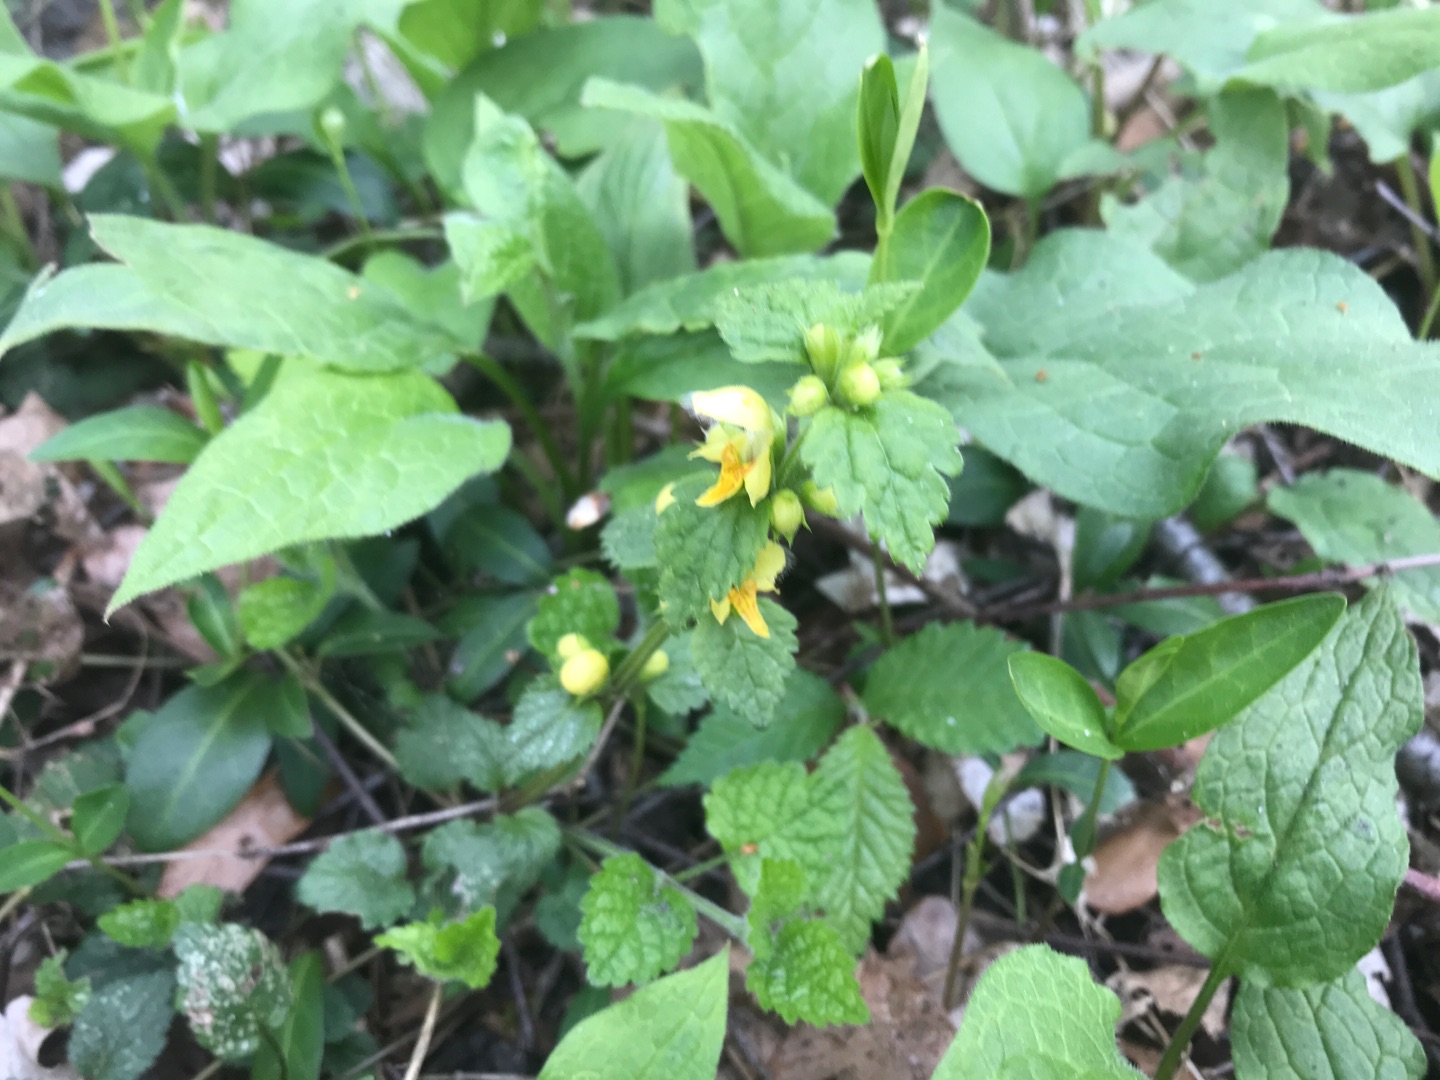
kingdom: Plantae
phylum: Tracheophyta
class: Magnoliopsida
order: Lamiales
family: Lamiaceae
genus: Lamium
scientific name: Lamium galeobdolon
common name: Guldnælde
